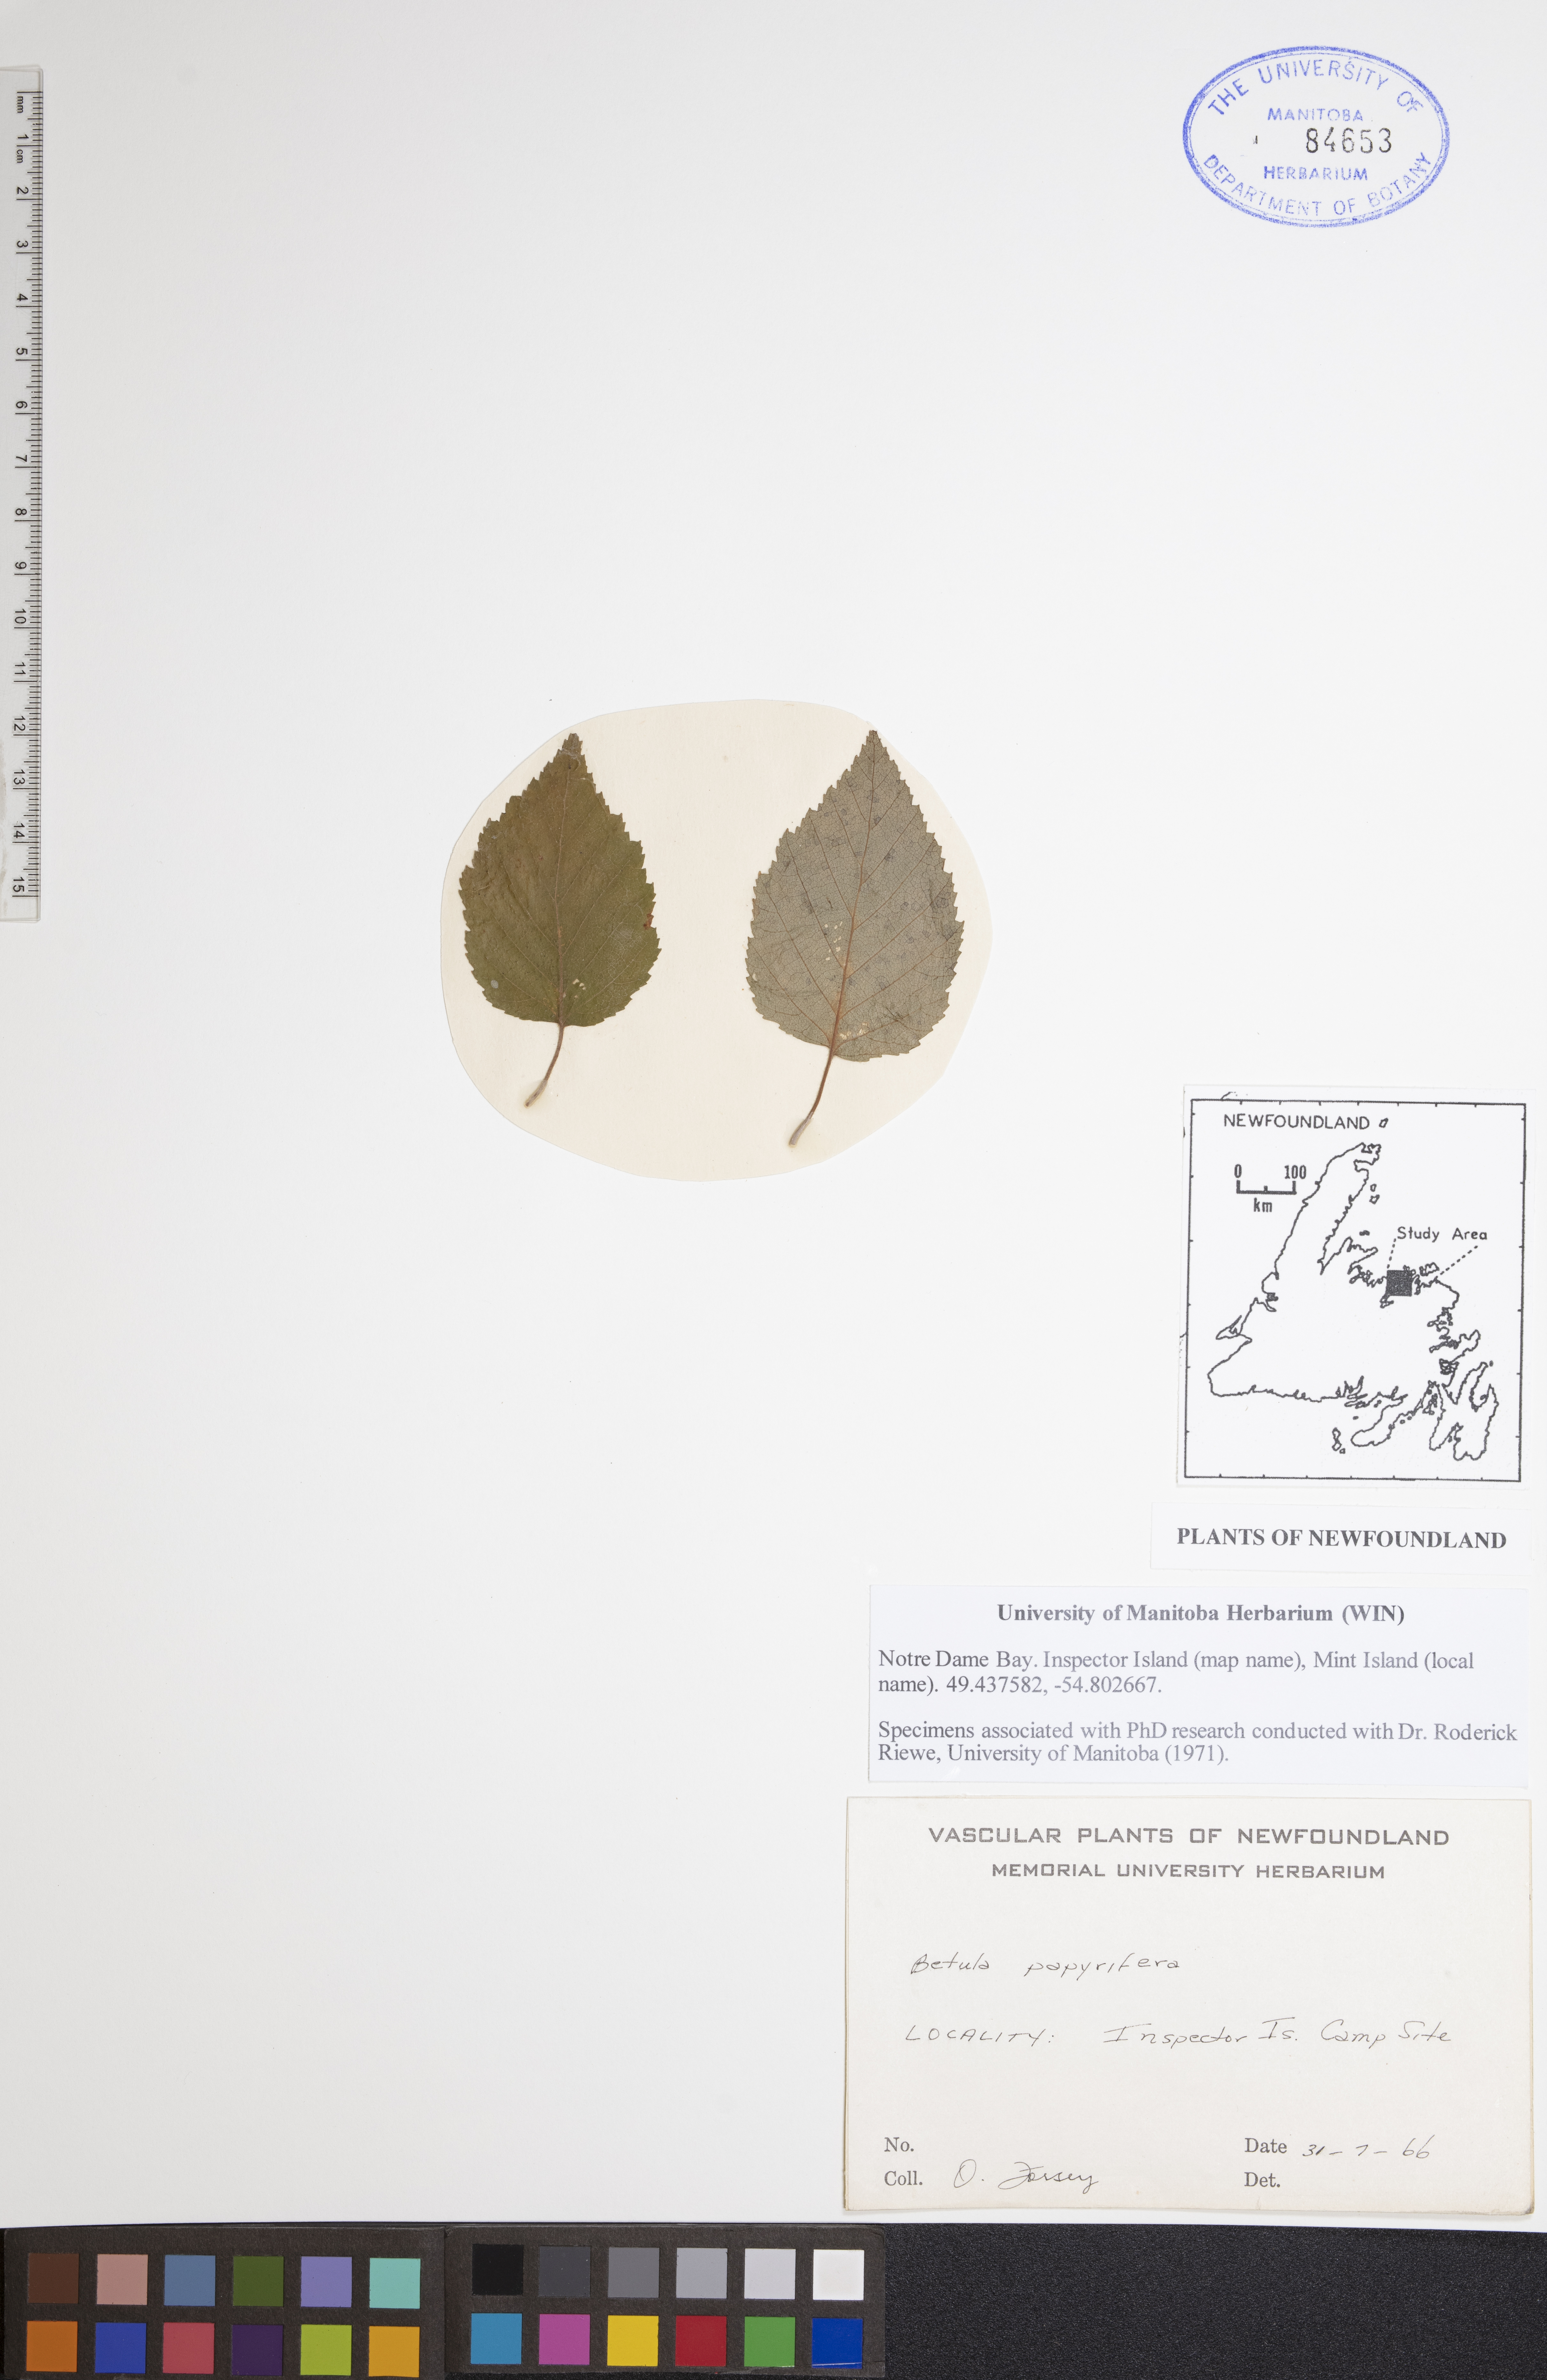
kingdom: Plantae
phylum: Tracheophyta
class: Magnoliopsida
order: Fagales
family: Betulaceae
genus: Betula
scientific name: Betula papyrifera
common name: Paper birch
